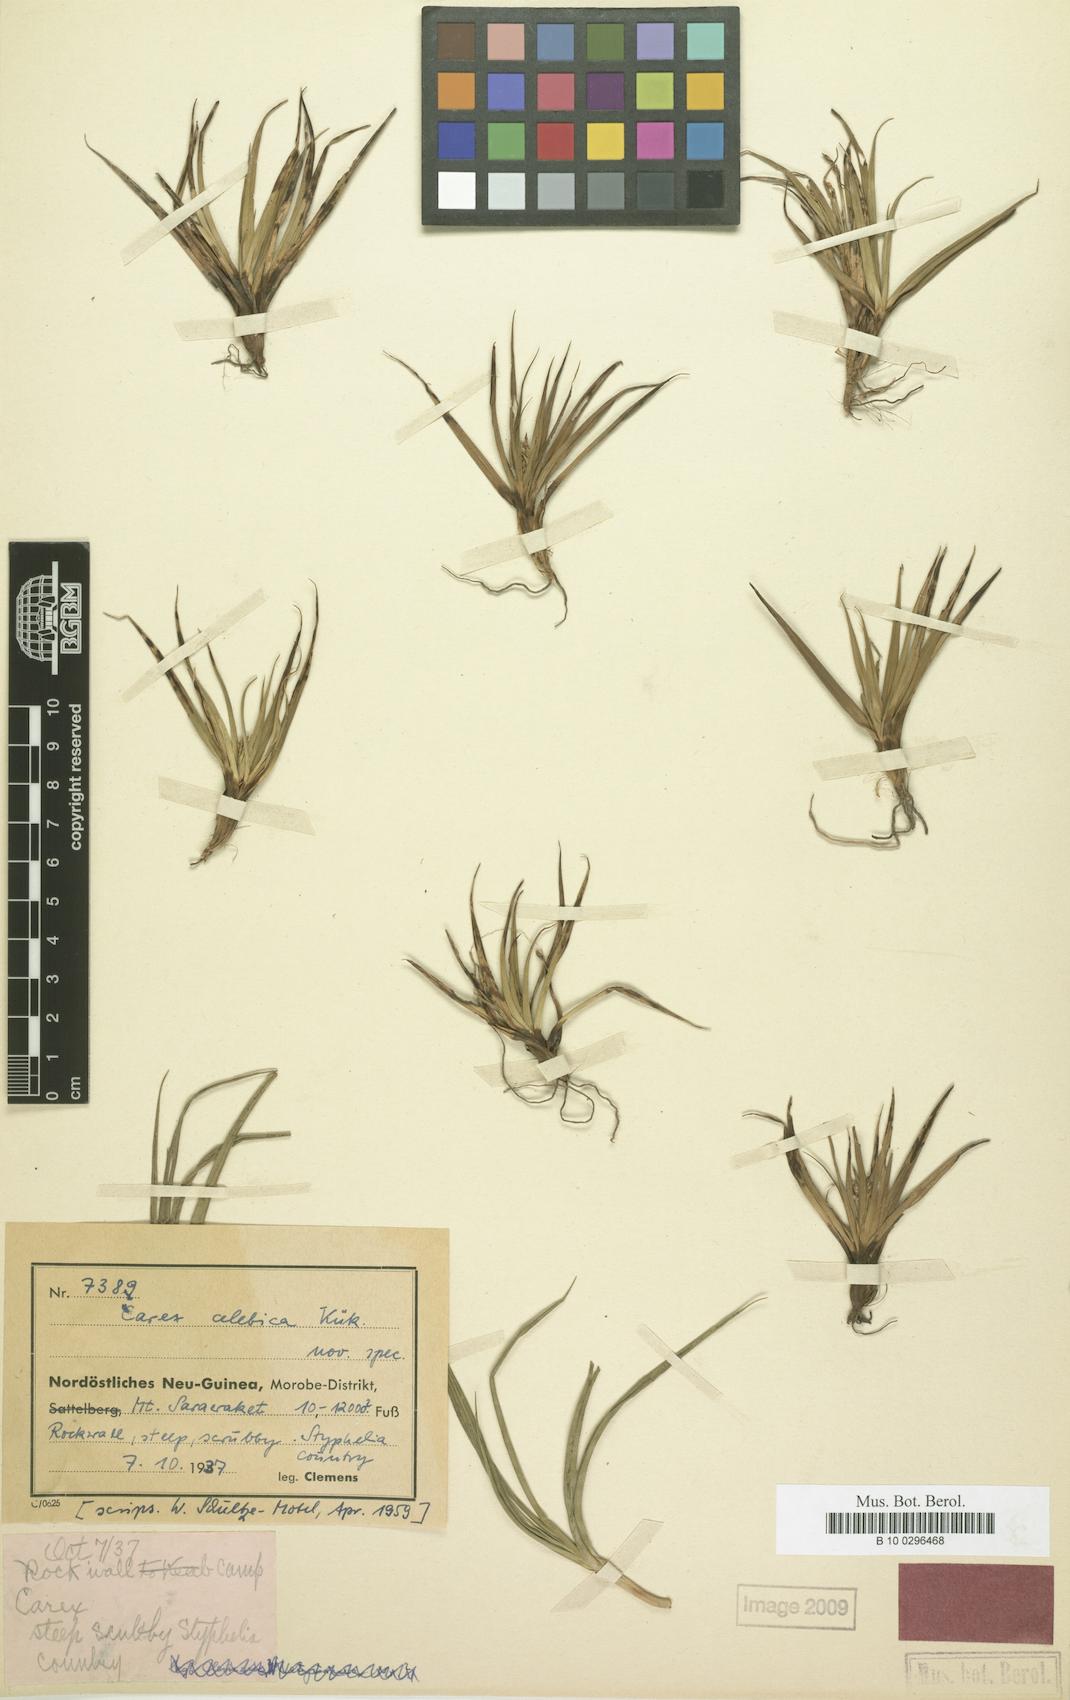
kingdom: Plantae
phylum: Tracheophyta
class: Liliopsida
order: Poales
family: Cyperaceae
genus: Carex
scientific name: Carex celebica
